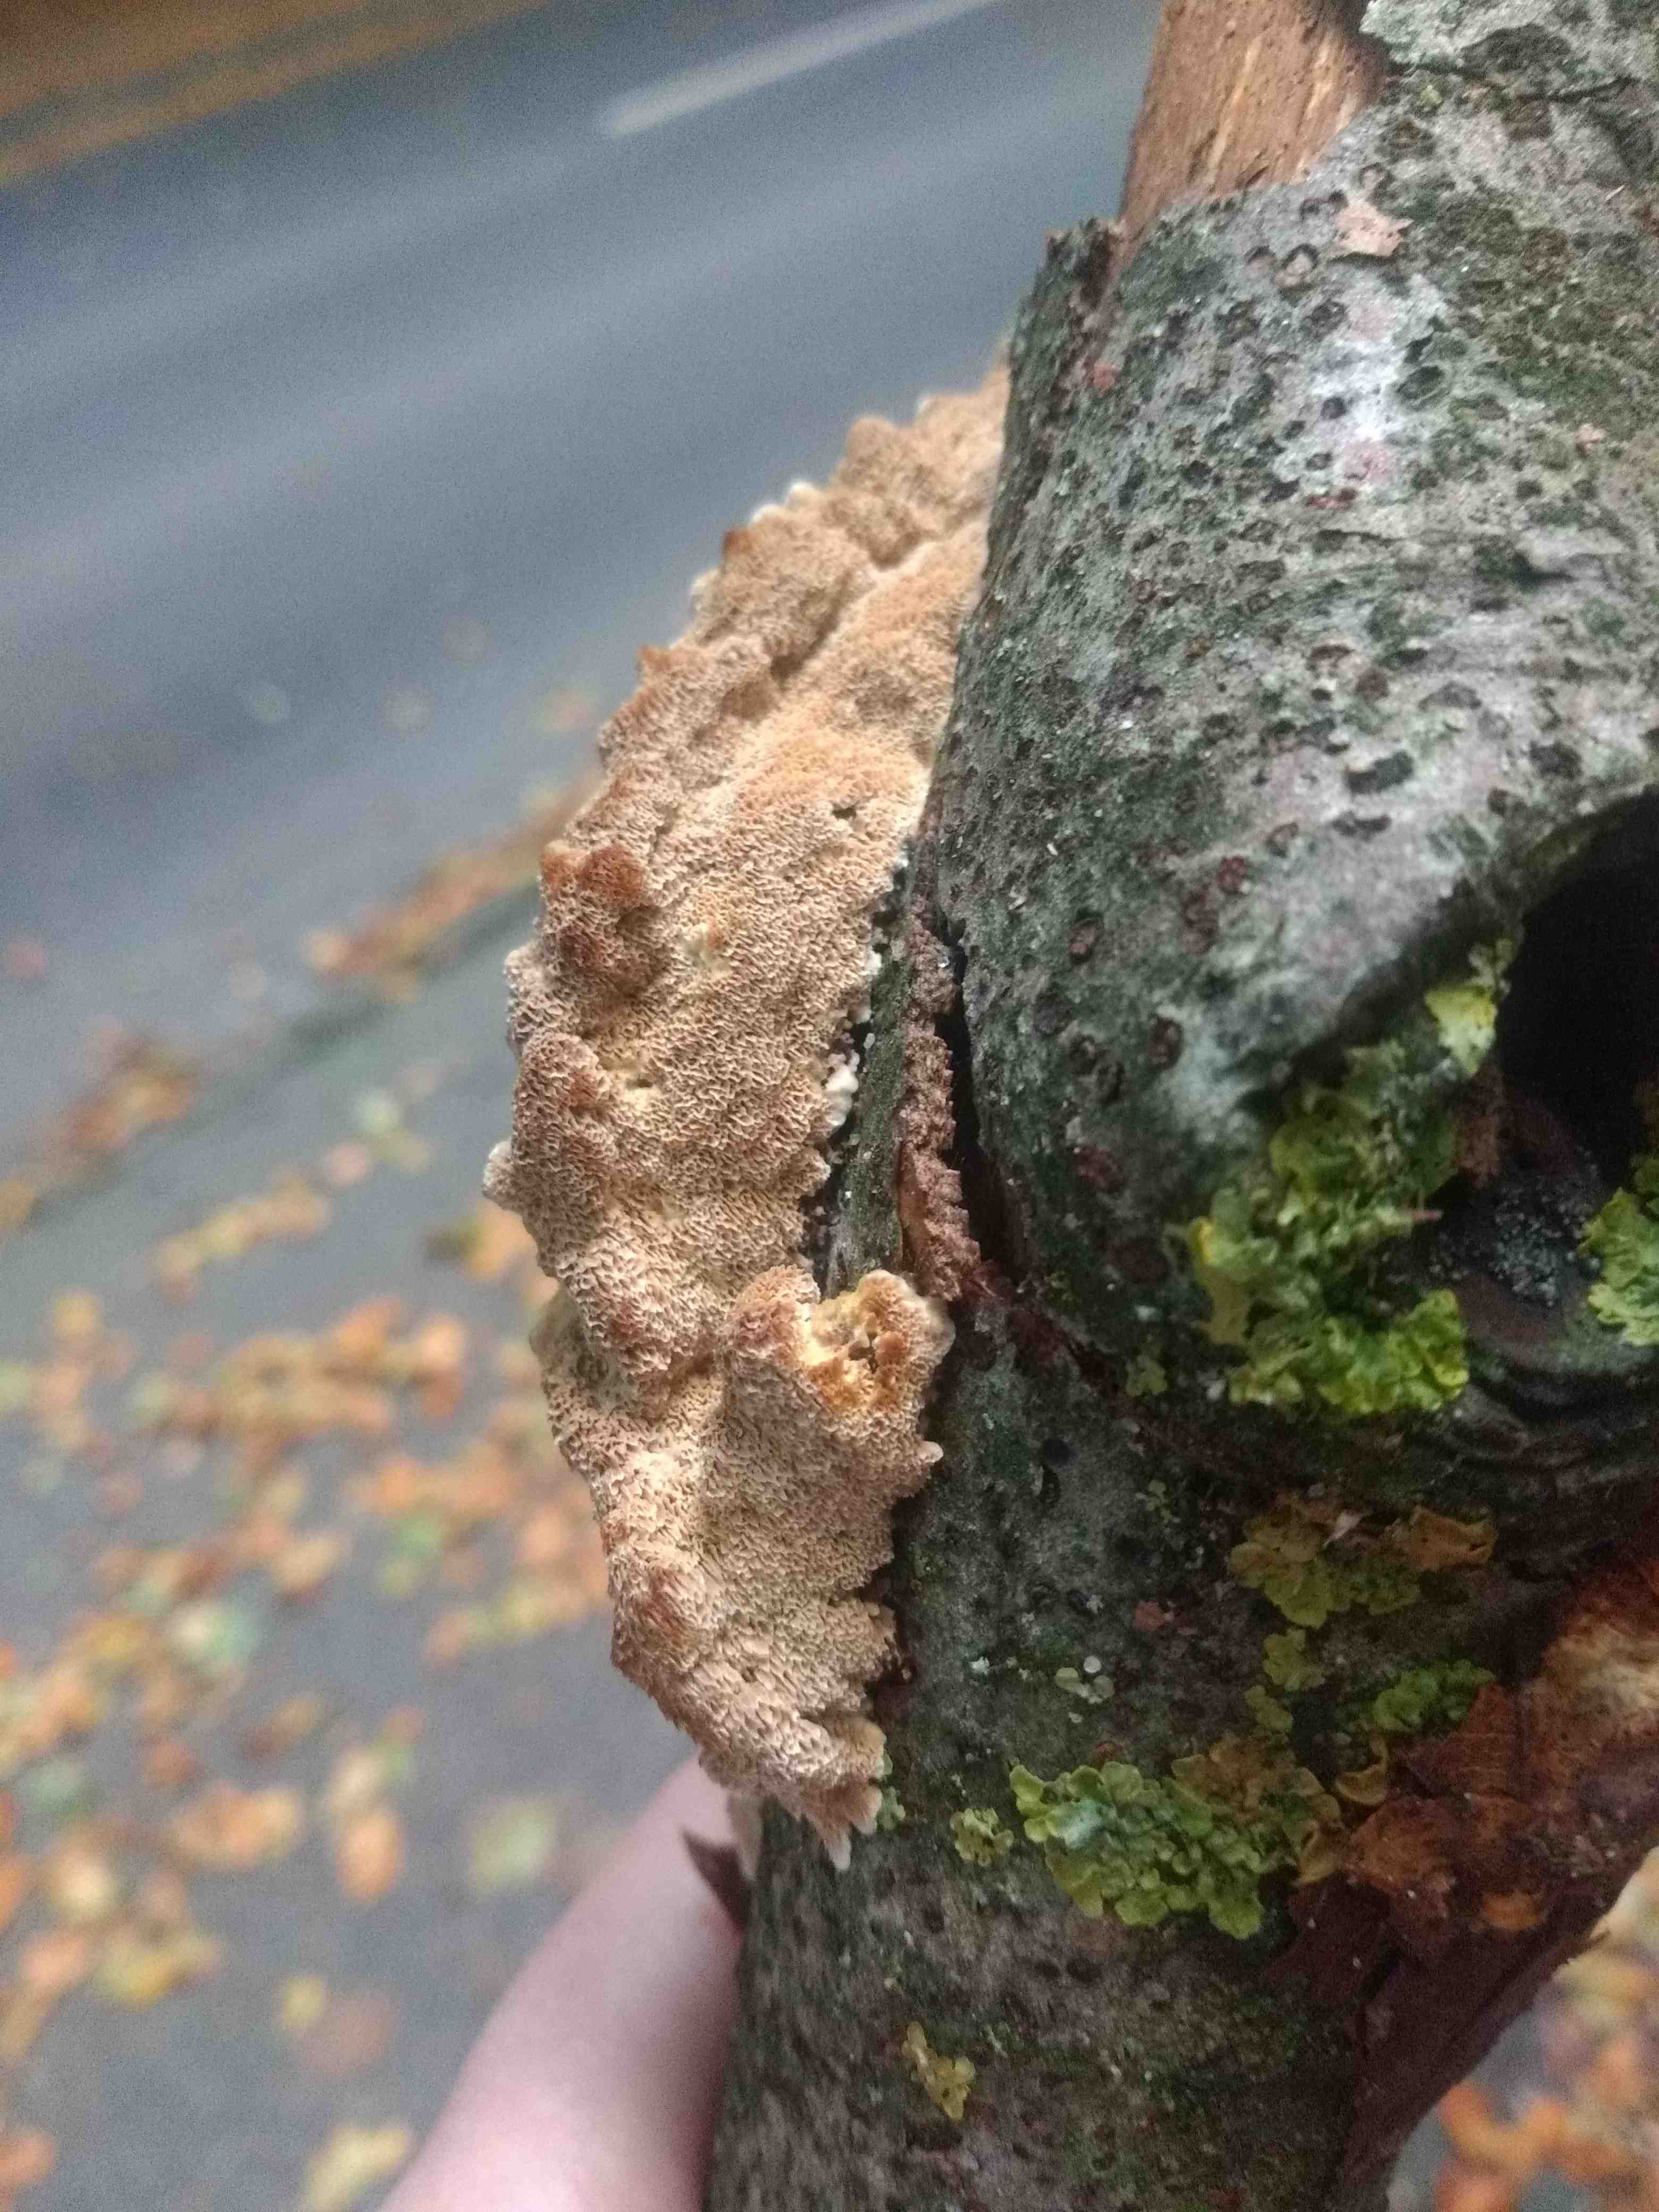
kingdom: Fungi
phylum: Basidiomycota
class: Agaricomycetes
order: Hymenochaetales
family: Hymenochaetaceae
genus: Mensularia
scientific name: Mensularia nodulosa
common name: bøge-spejlporesvamp
